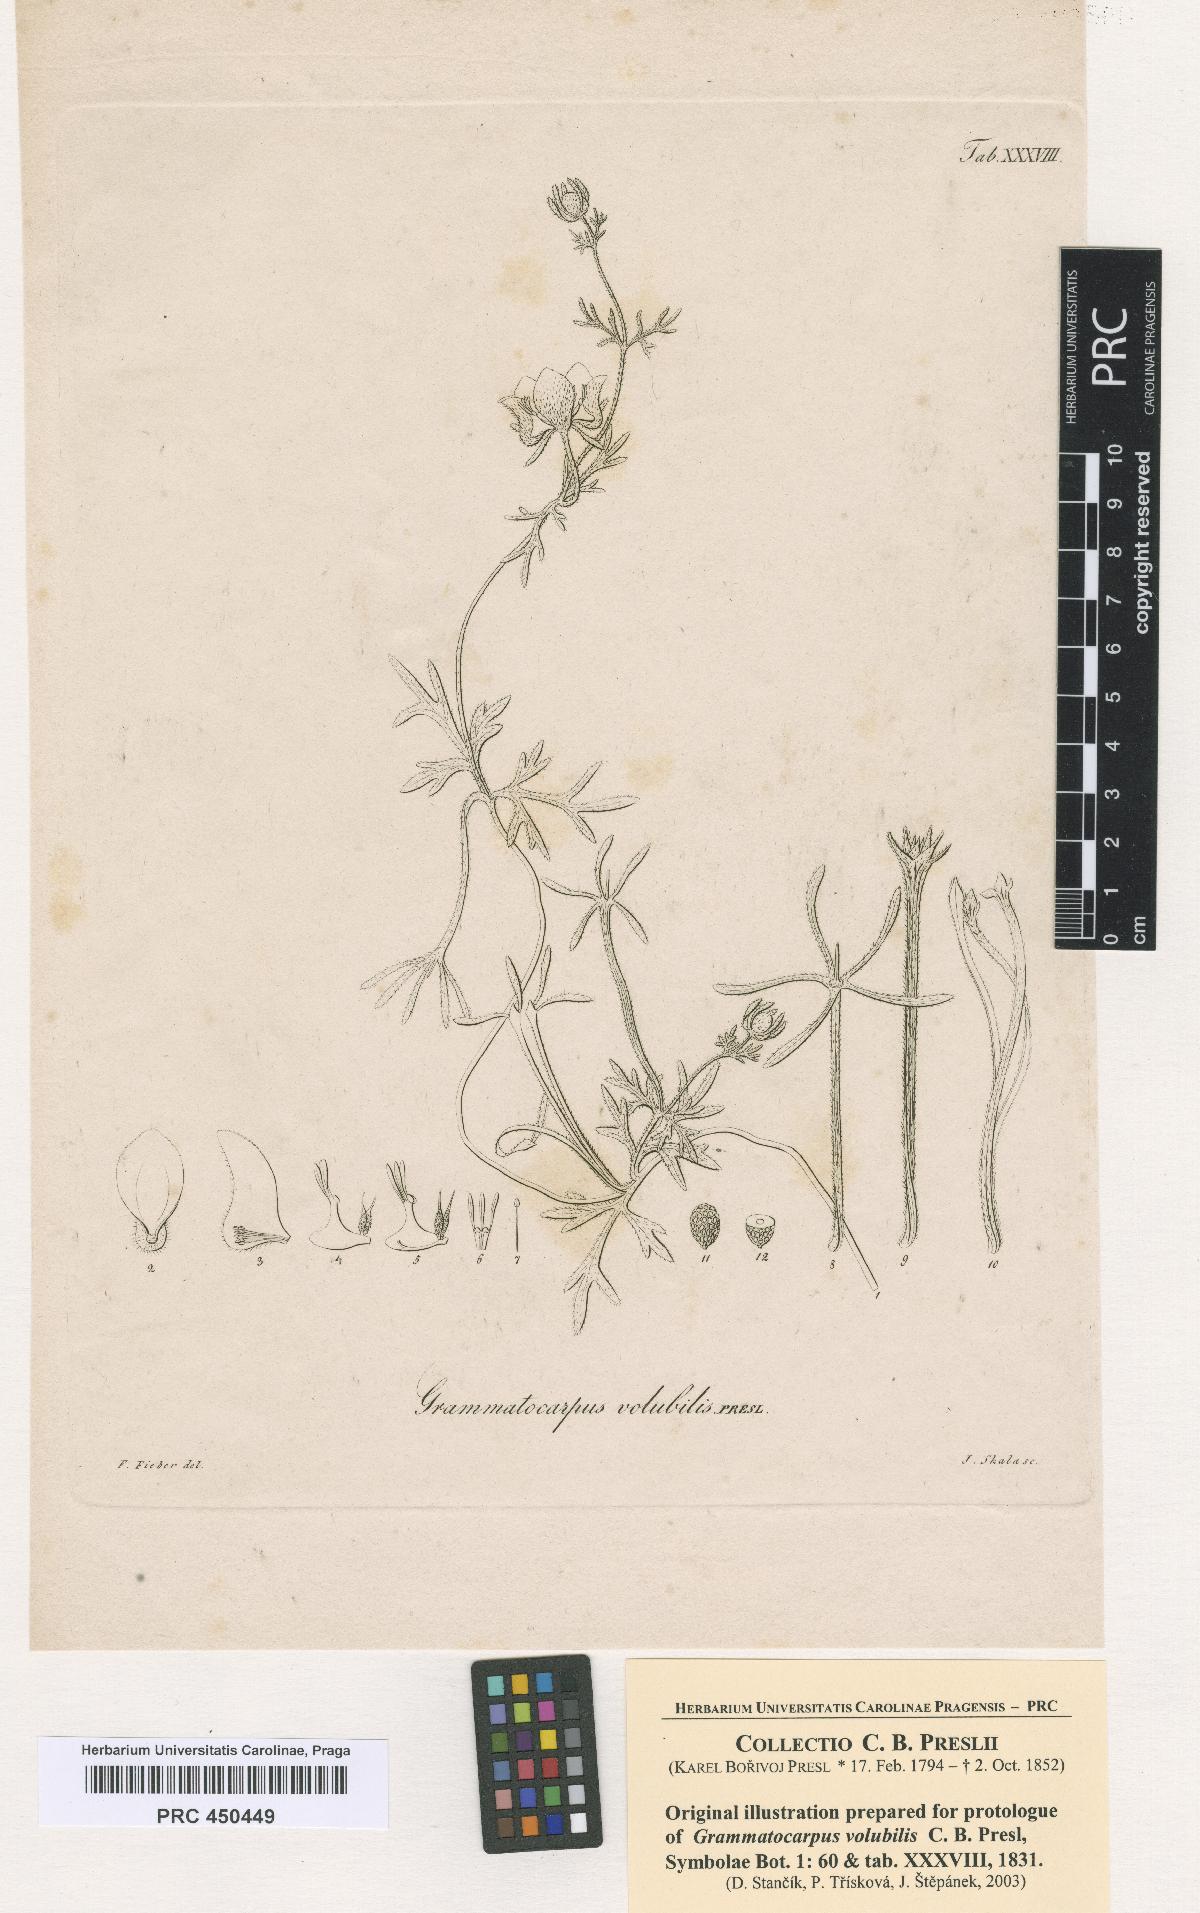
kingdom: Plantae
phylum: Tracheophyta
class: Magnoliopsida
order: Cornales
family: Loasaceae
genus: Scyphanthus
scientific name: Scyphanthus elegans
